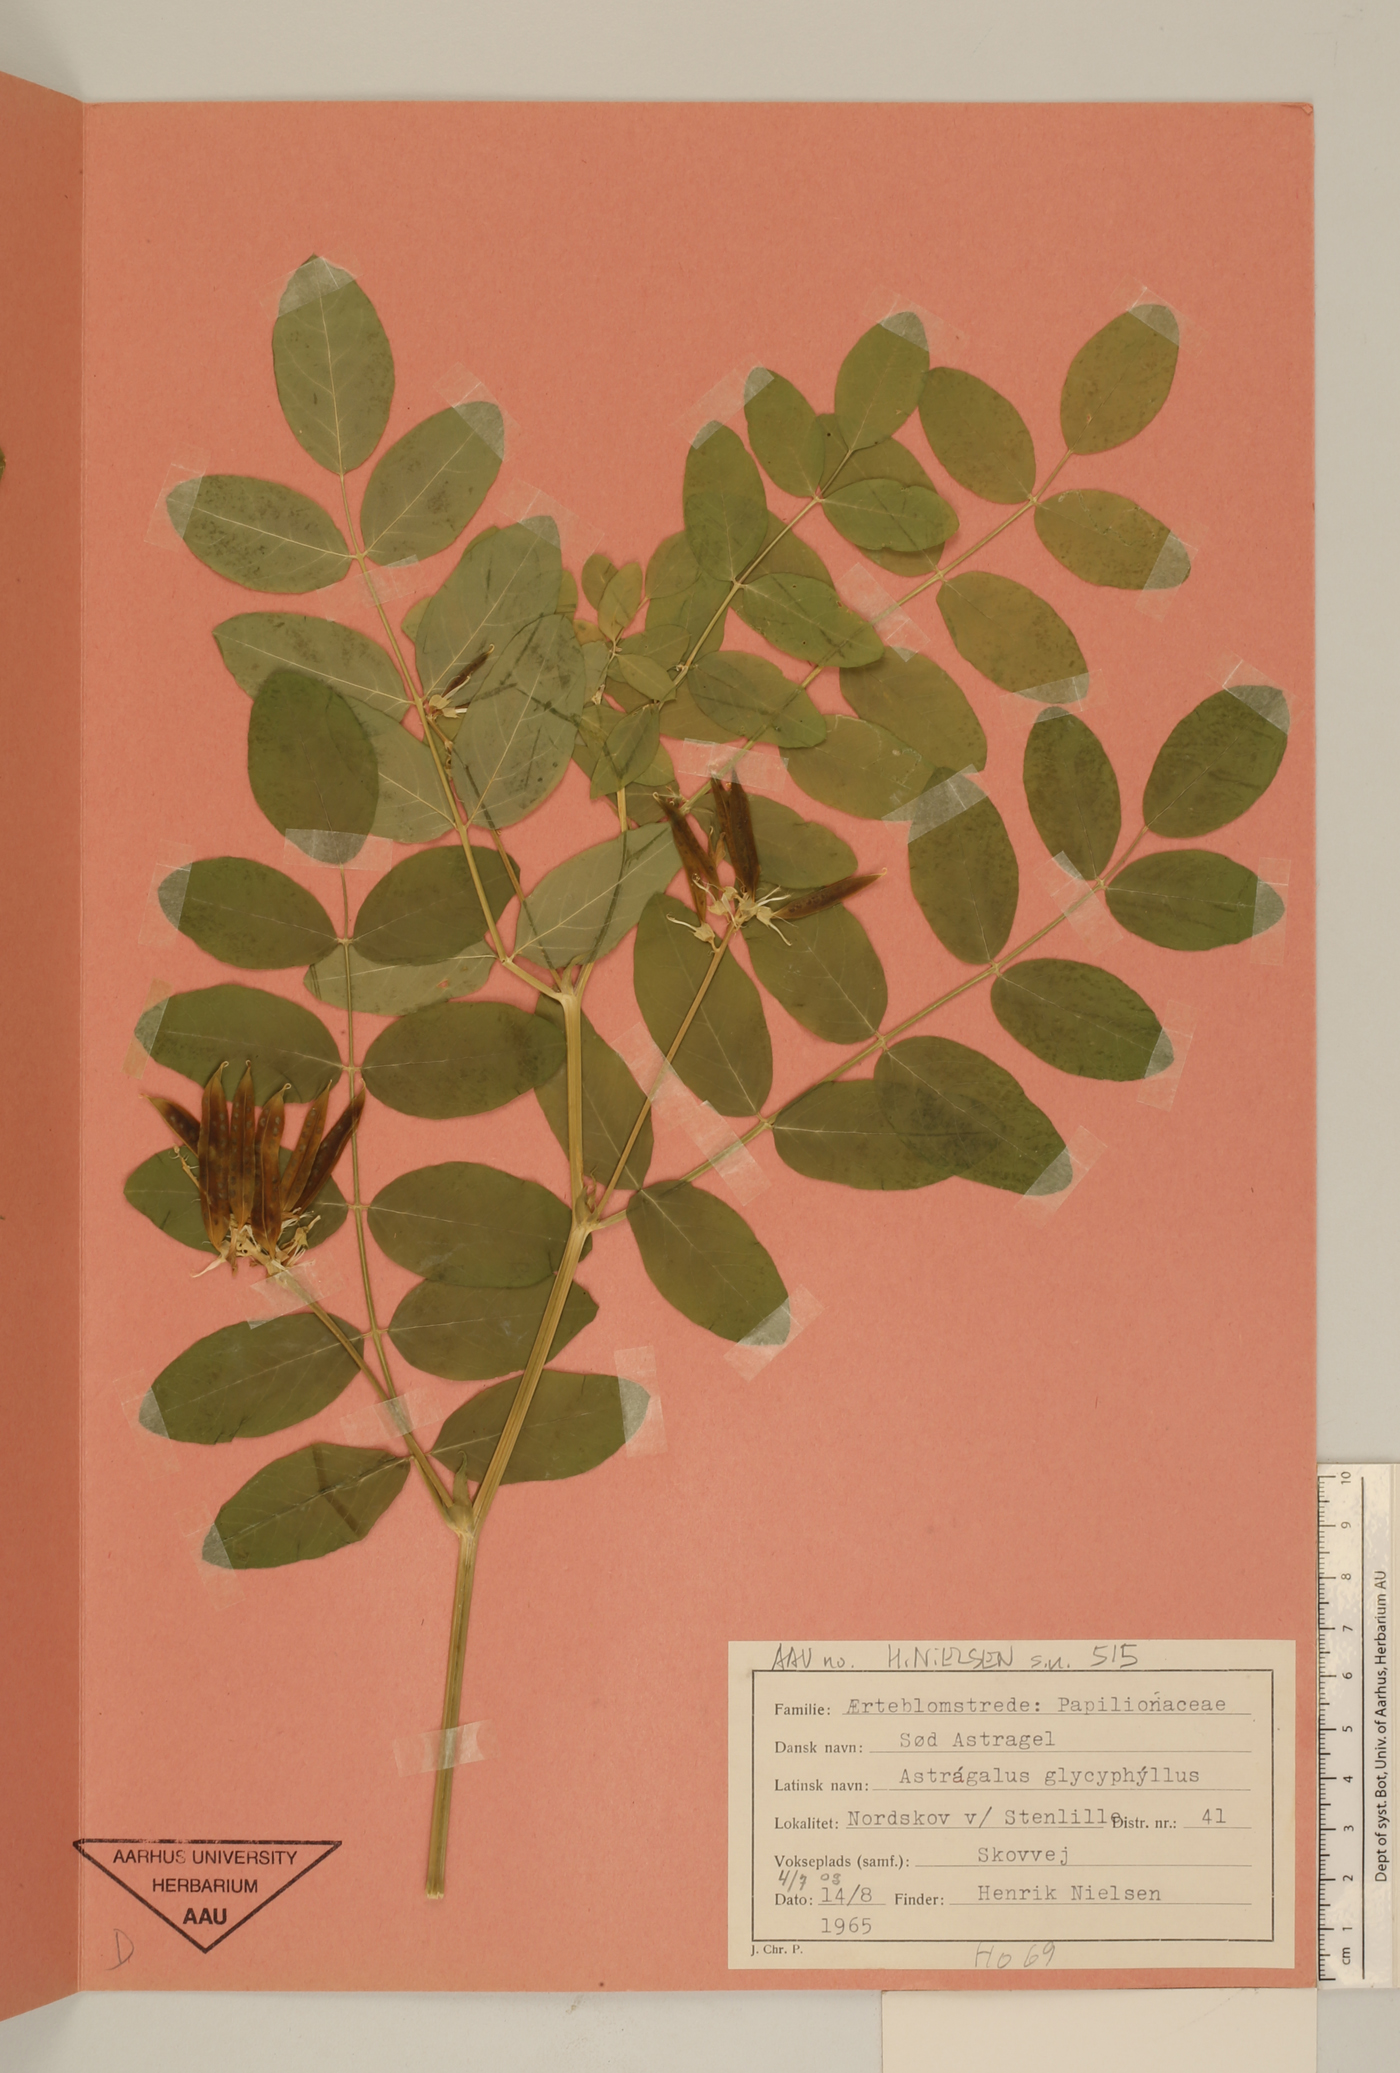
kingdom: Plantae
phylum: Tracheophyta
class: Magnoliopsida
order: Fabales
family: Fabaceae
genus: Astragalus
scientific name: Astragalus glycyphyllos
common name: Wild liquorice
